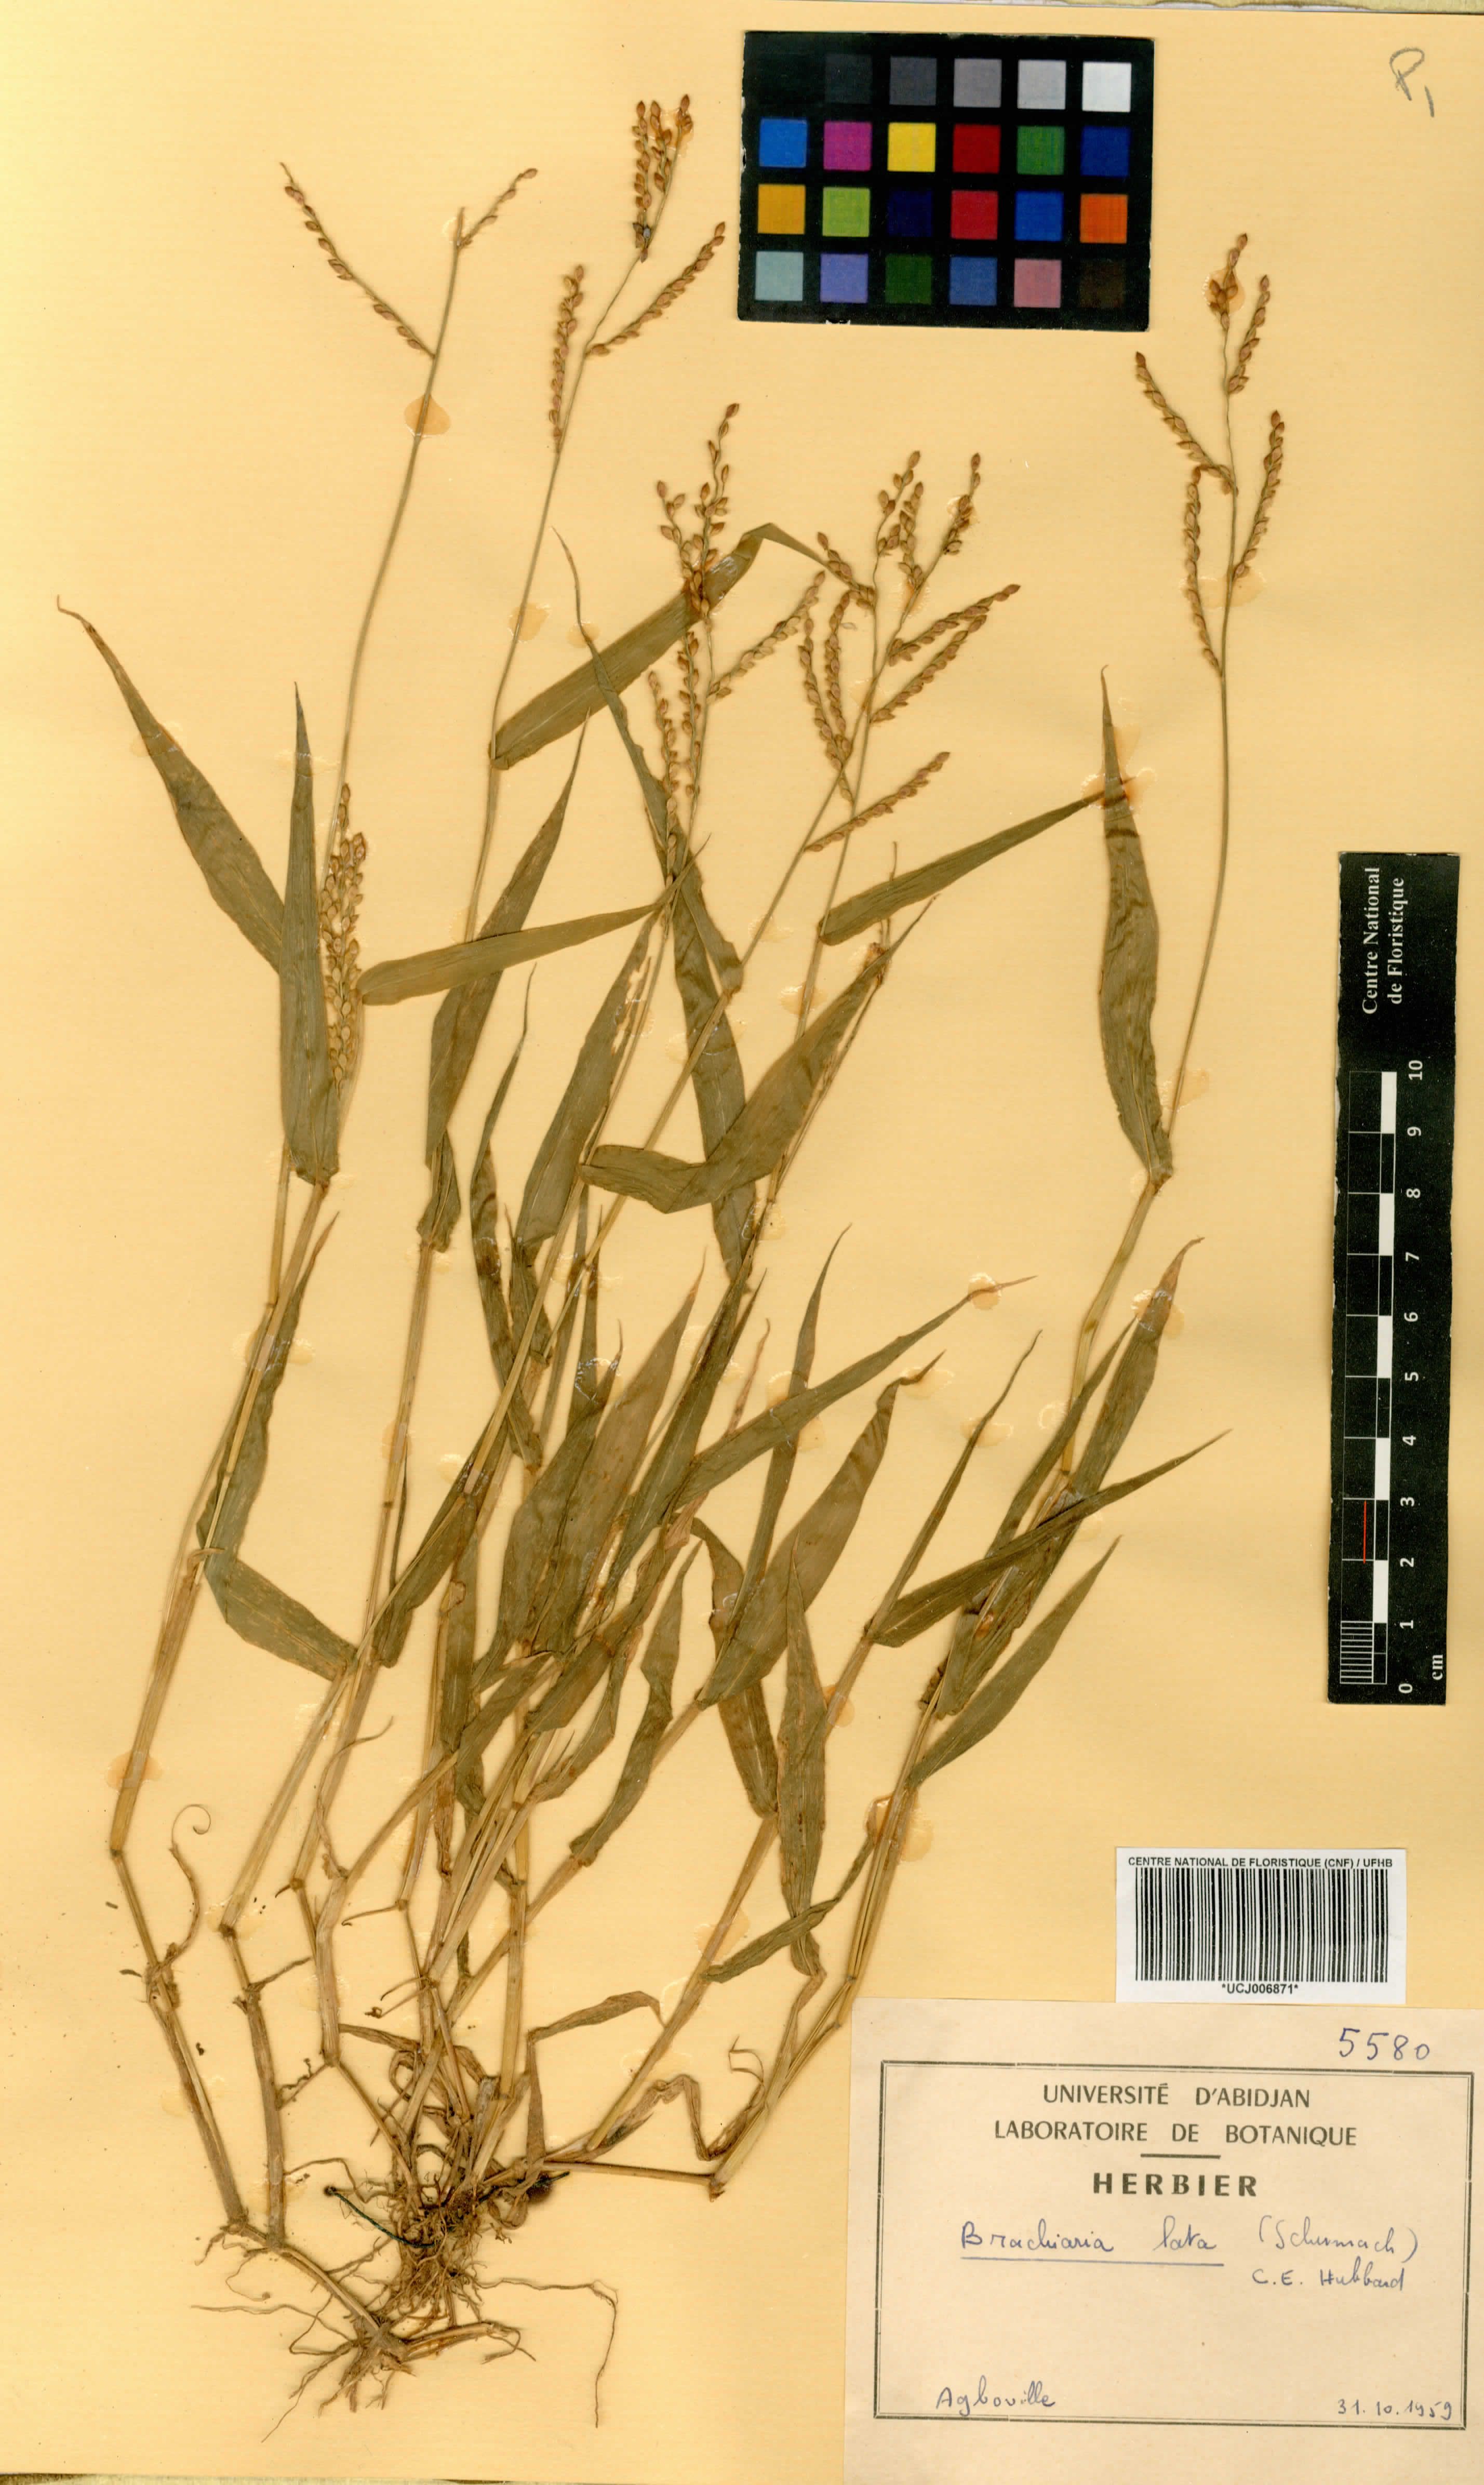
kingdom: Plantae
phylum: Tracheophyta
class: Liliopsida
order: Poales
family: Poaceae
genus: Urochloa
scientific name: Urochloa lata
